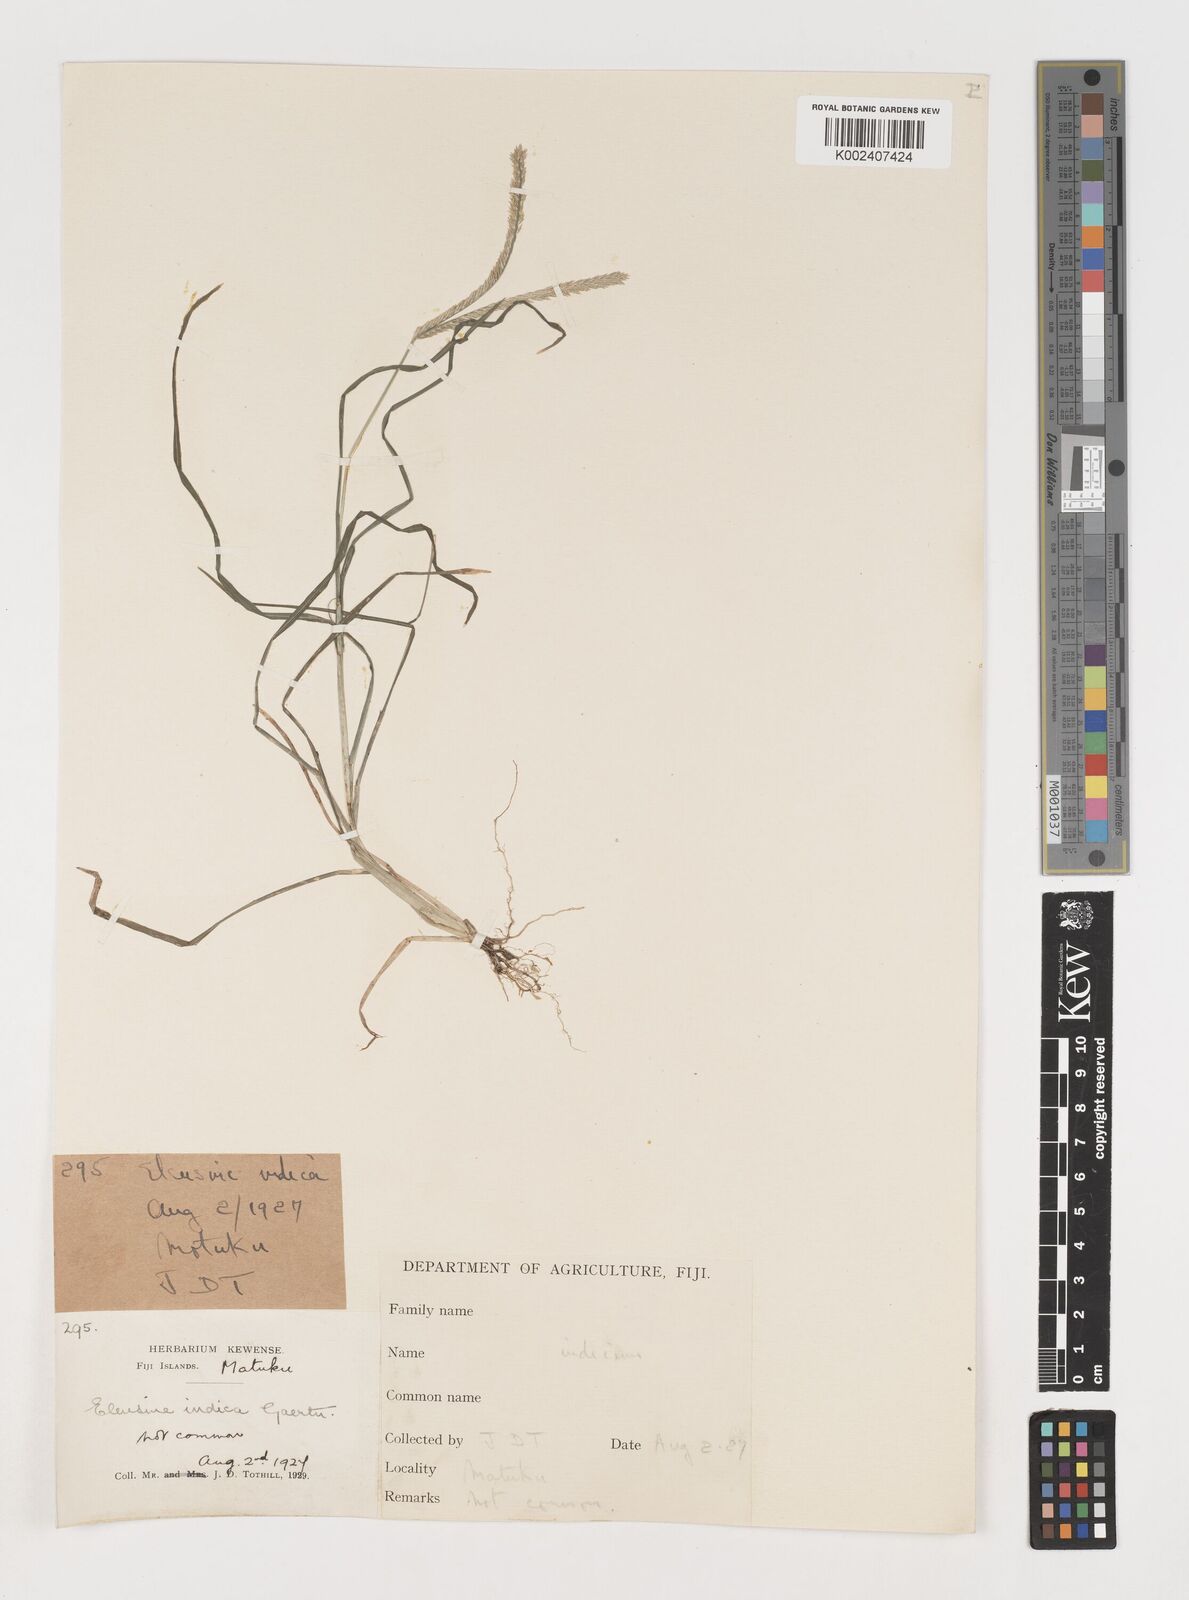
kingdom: Plantae
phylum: Tracheophyta
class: Liliopsida
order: Poales
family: Poaceae
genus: Eleusine
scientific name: Eleusine indica
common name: Yard-grass
